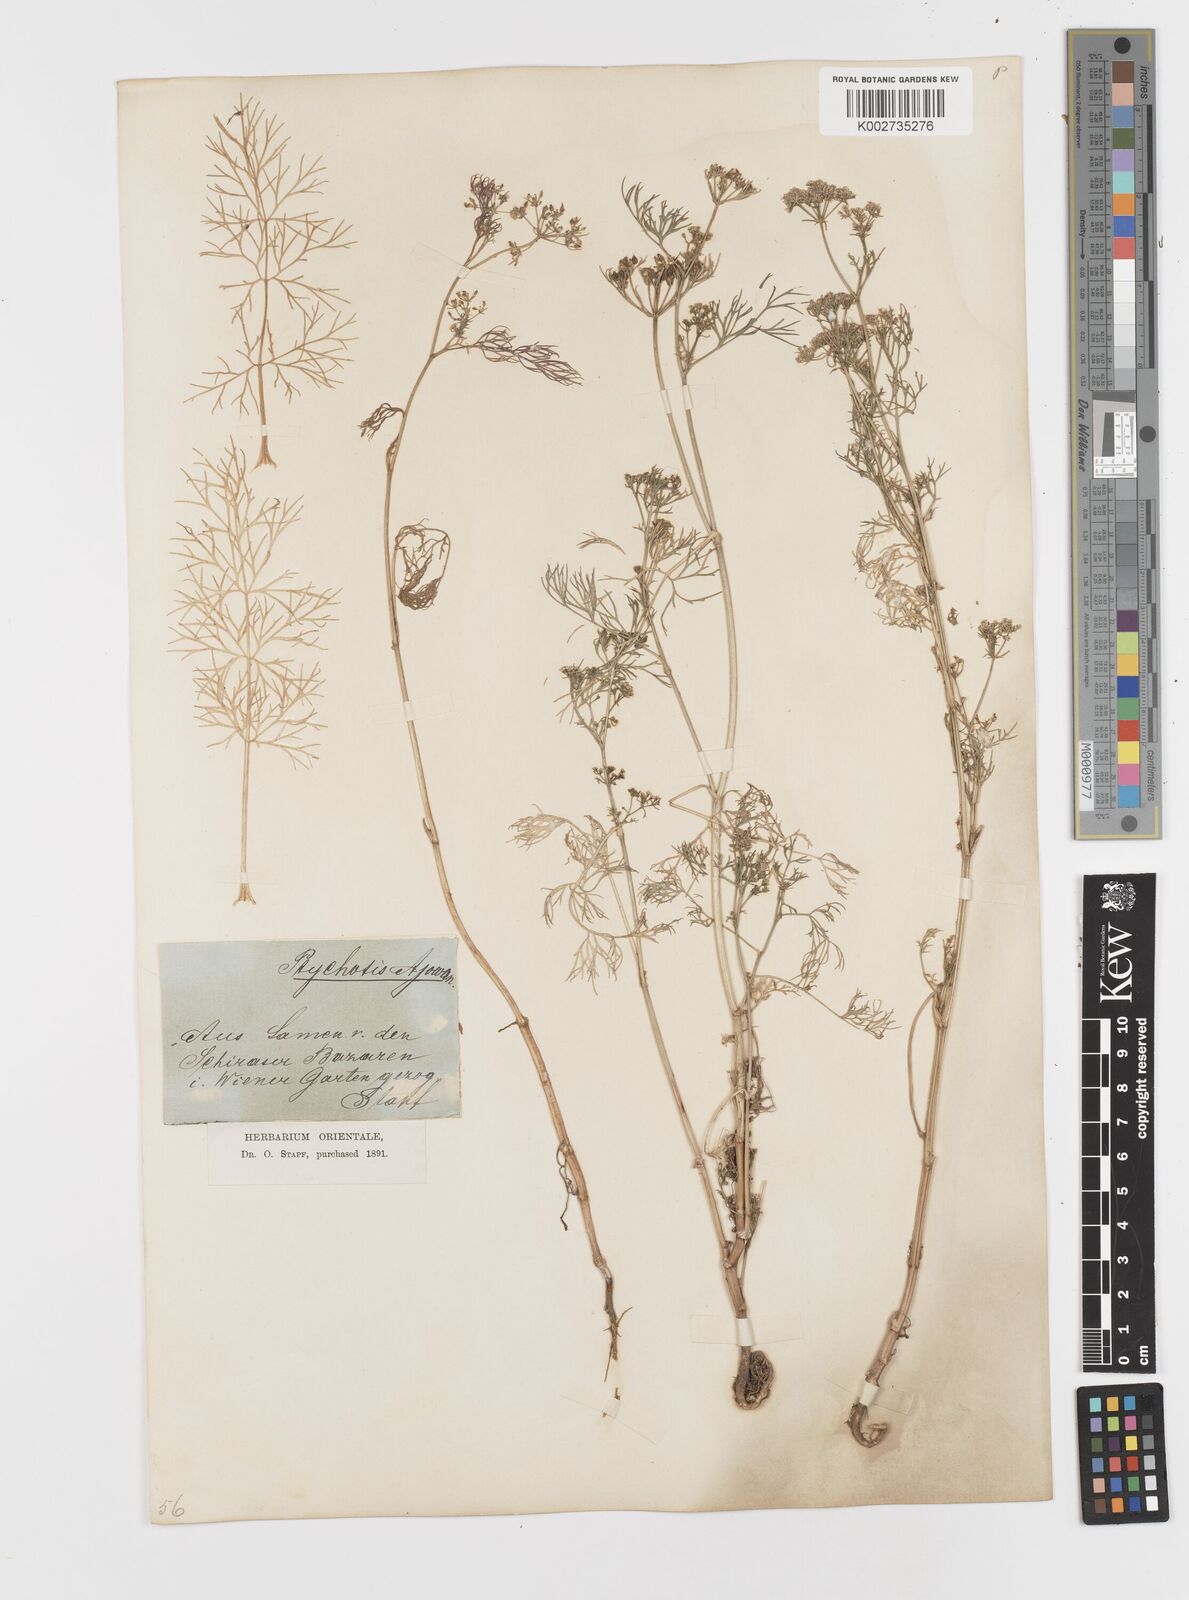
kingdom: Plantae
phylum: Tracheophyta
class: Magnoliopsida
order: Apiales
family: Apiaceae
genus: Trachyspermum
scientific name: Trachyspermum ammi
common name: Ajowan
